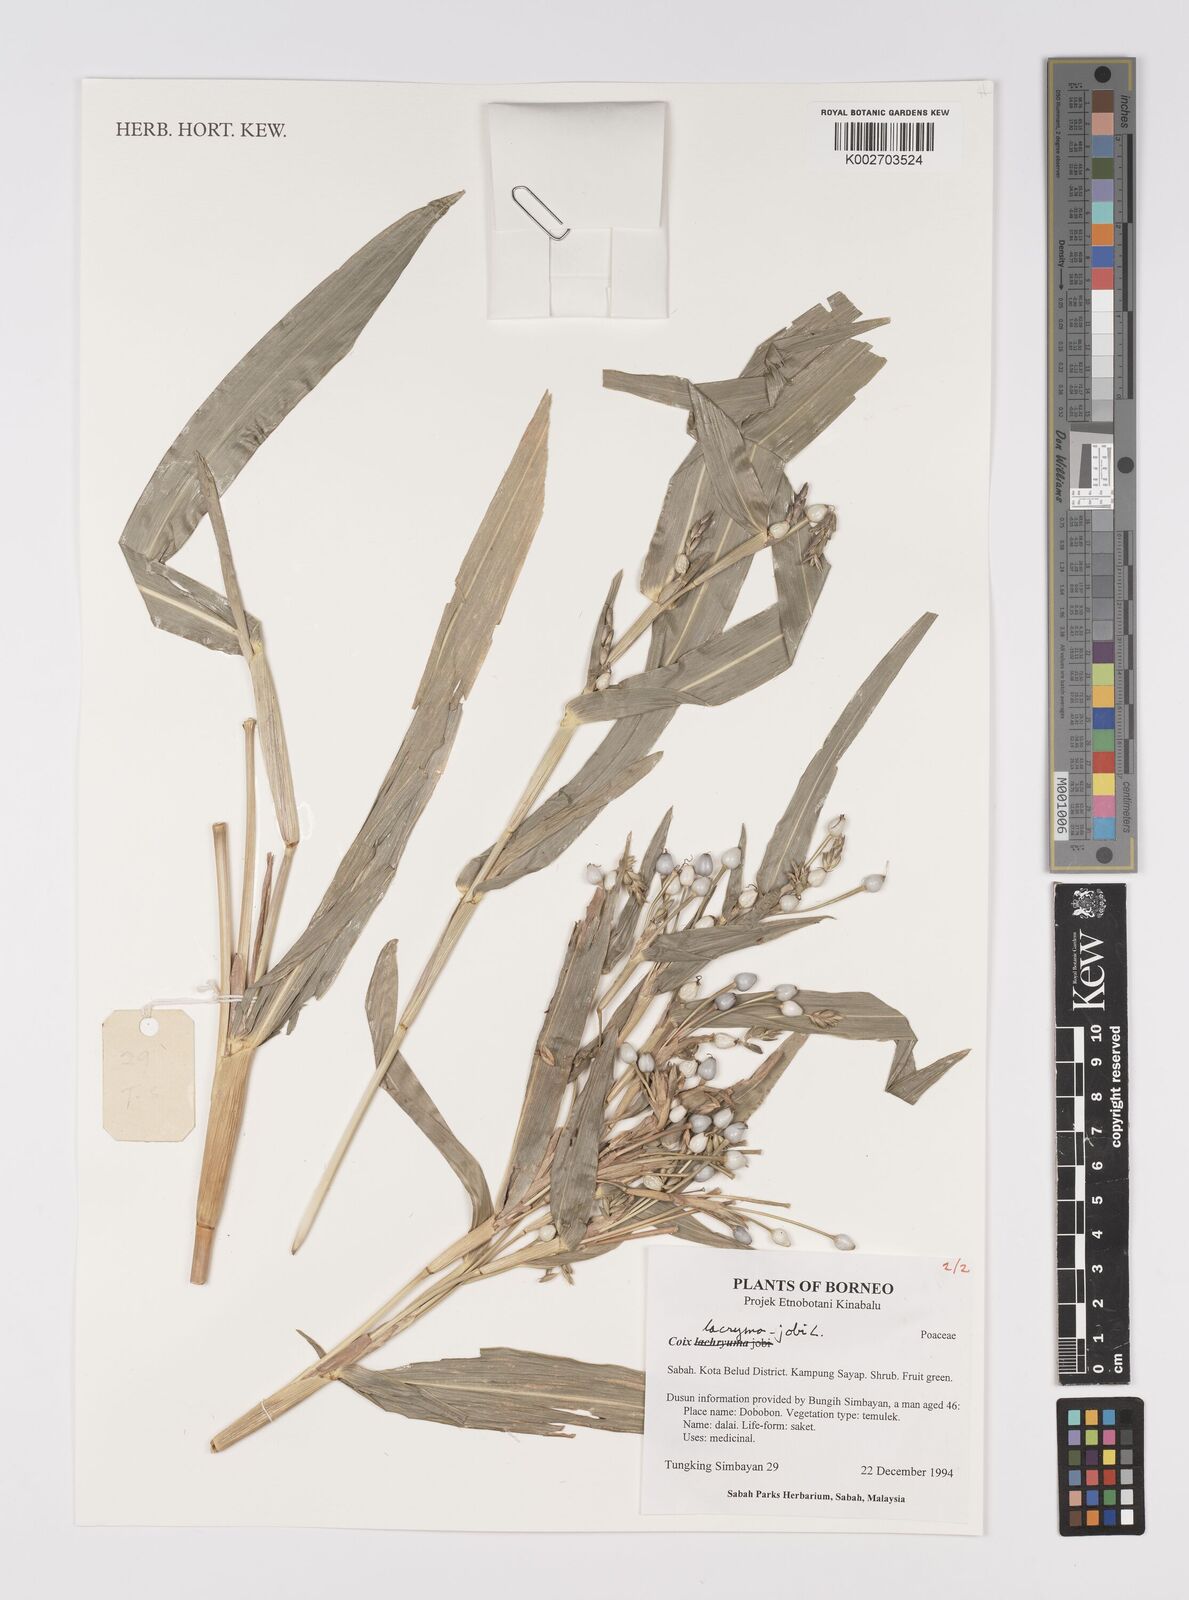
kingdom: Plantae
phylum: Tracheophyta
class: Liliopsida
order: Poales
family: Poaceae
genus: Coix
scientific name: Coix lacryma-jobi
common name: Job's tears
